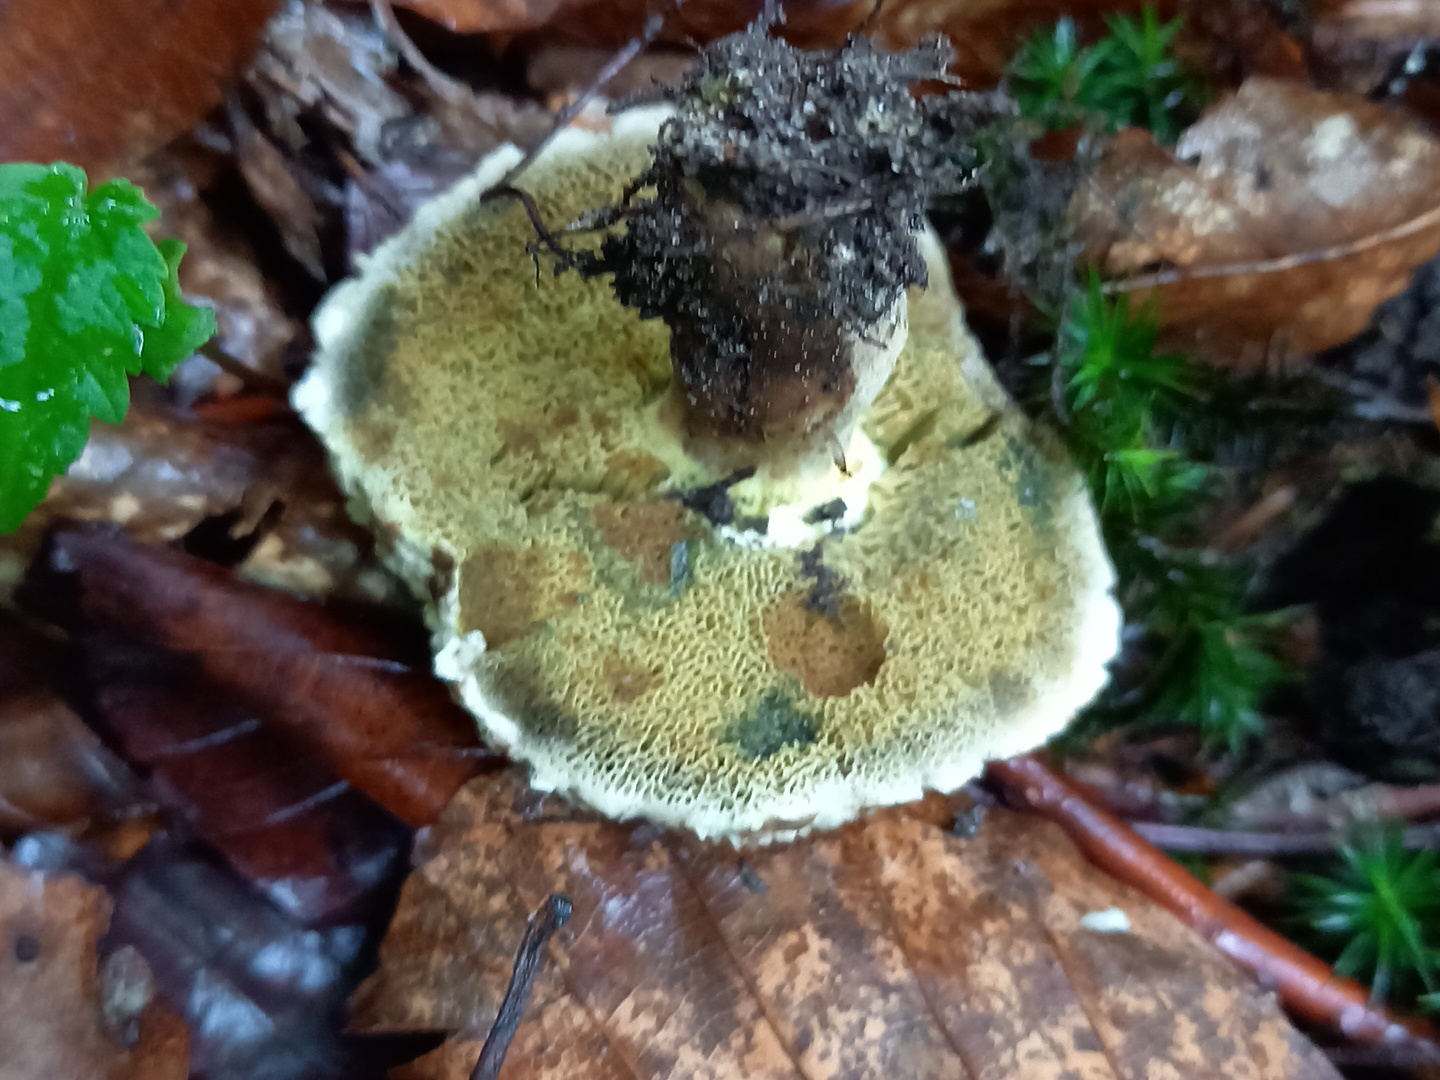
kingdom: Fungi
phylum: Basidiomycota
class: Agaricomycetes
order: Boletales
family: Boletaceae
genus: Xerocomellus
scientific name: Xerocomellus porosporus
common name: hvidsprukken rørhat
